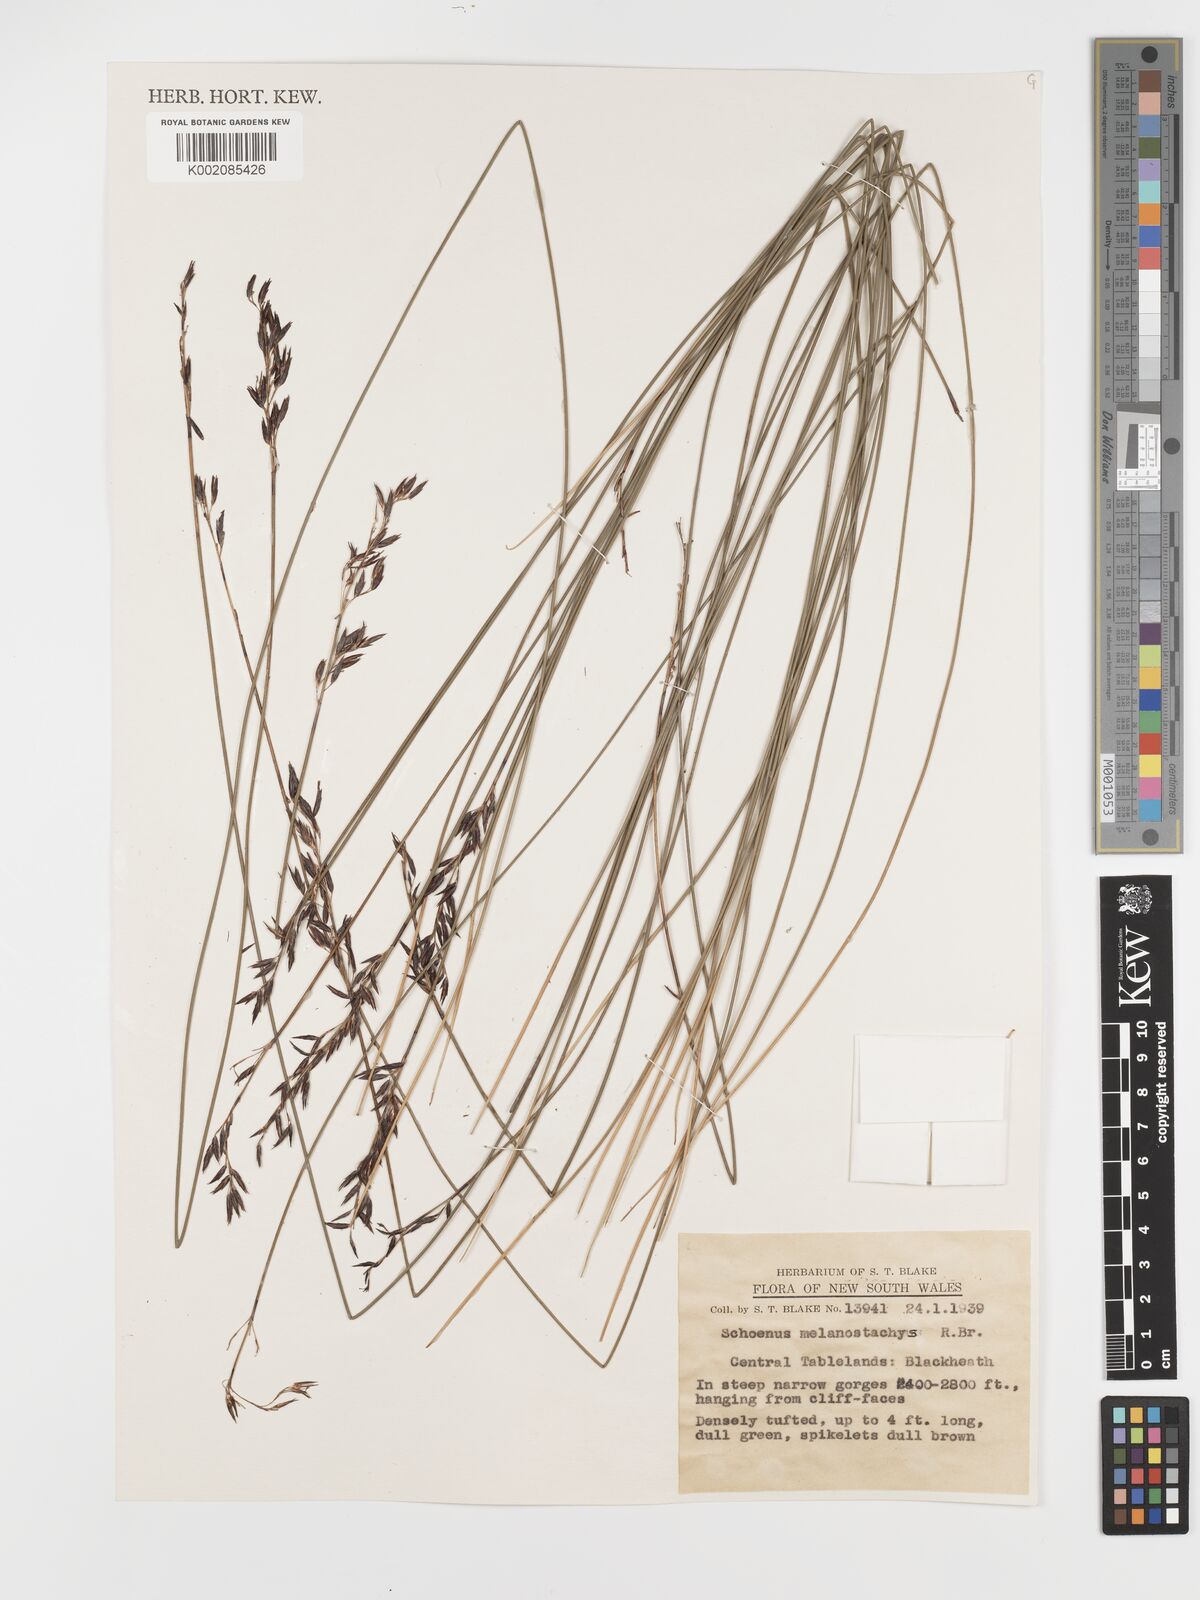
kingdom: Plantae
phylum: Tracheophyta
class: Liliopsida
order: Poales
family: Cyperaceae
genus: Schoenus
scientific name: Schoenus melanostachys
